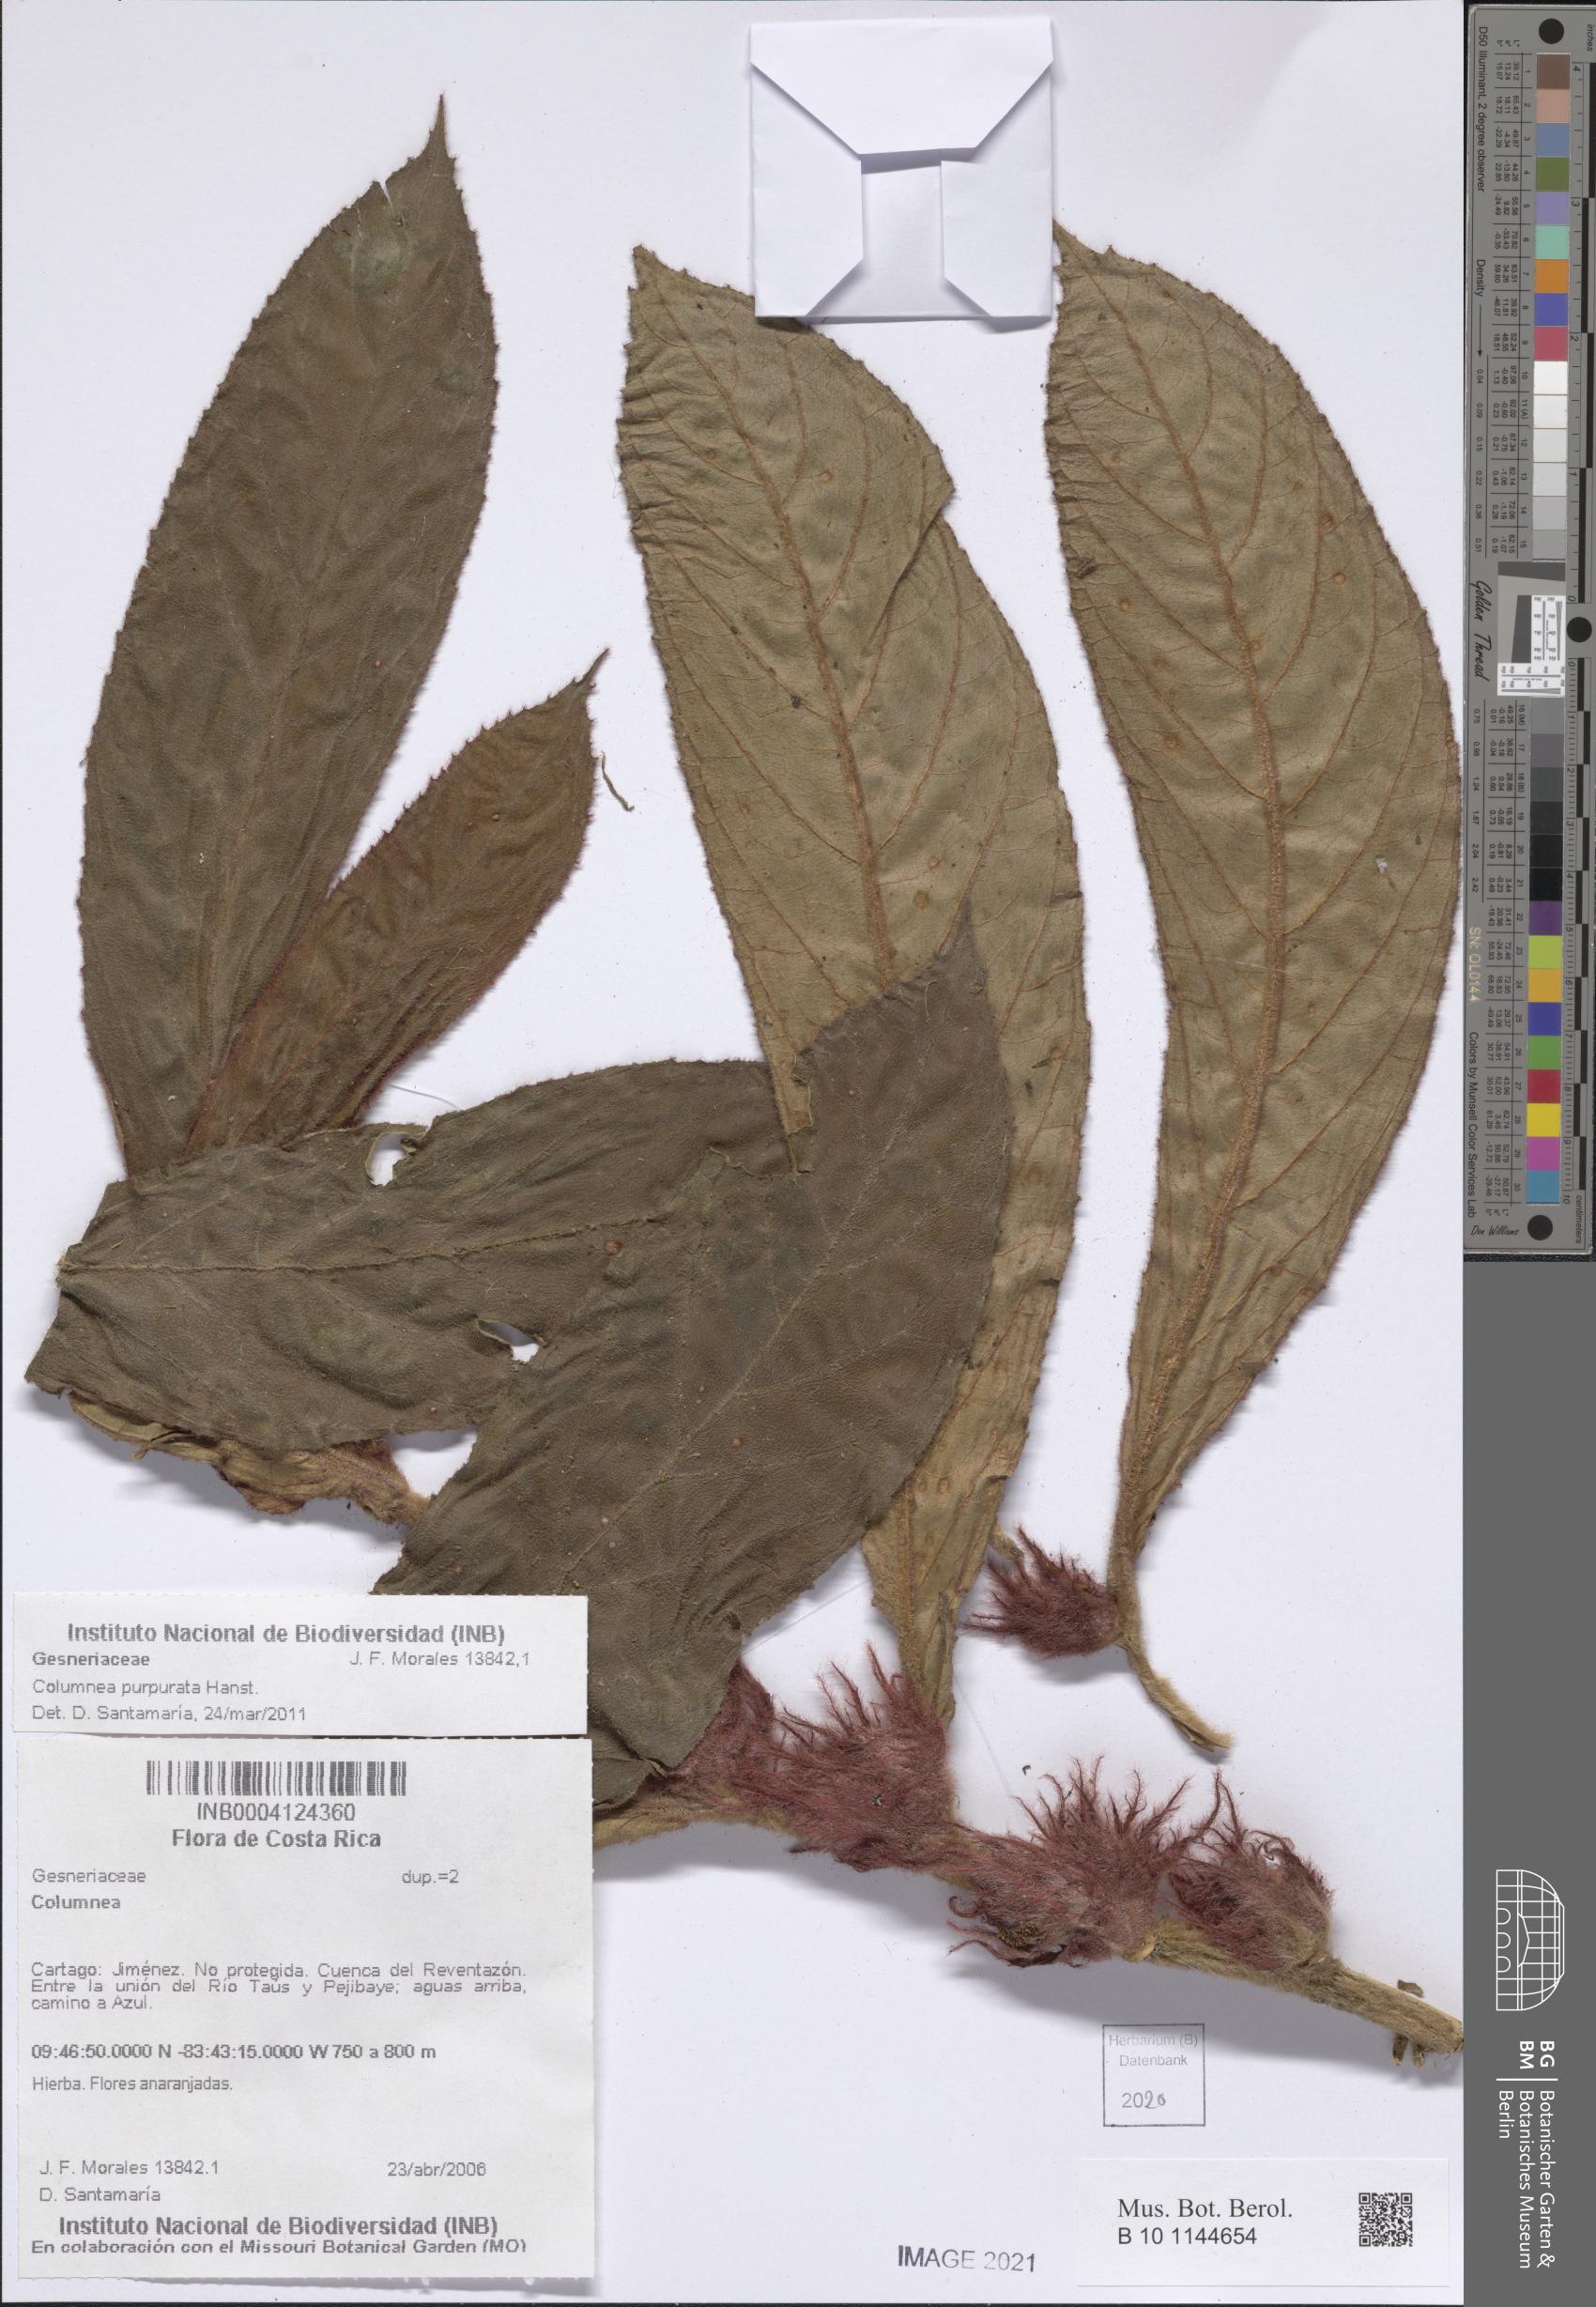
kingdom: Plantae
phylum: Tracheophyta
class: Magnoliopsida
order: Lamiales
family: Gesneriaceae
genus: Columnea
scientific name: Columnea
